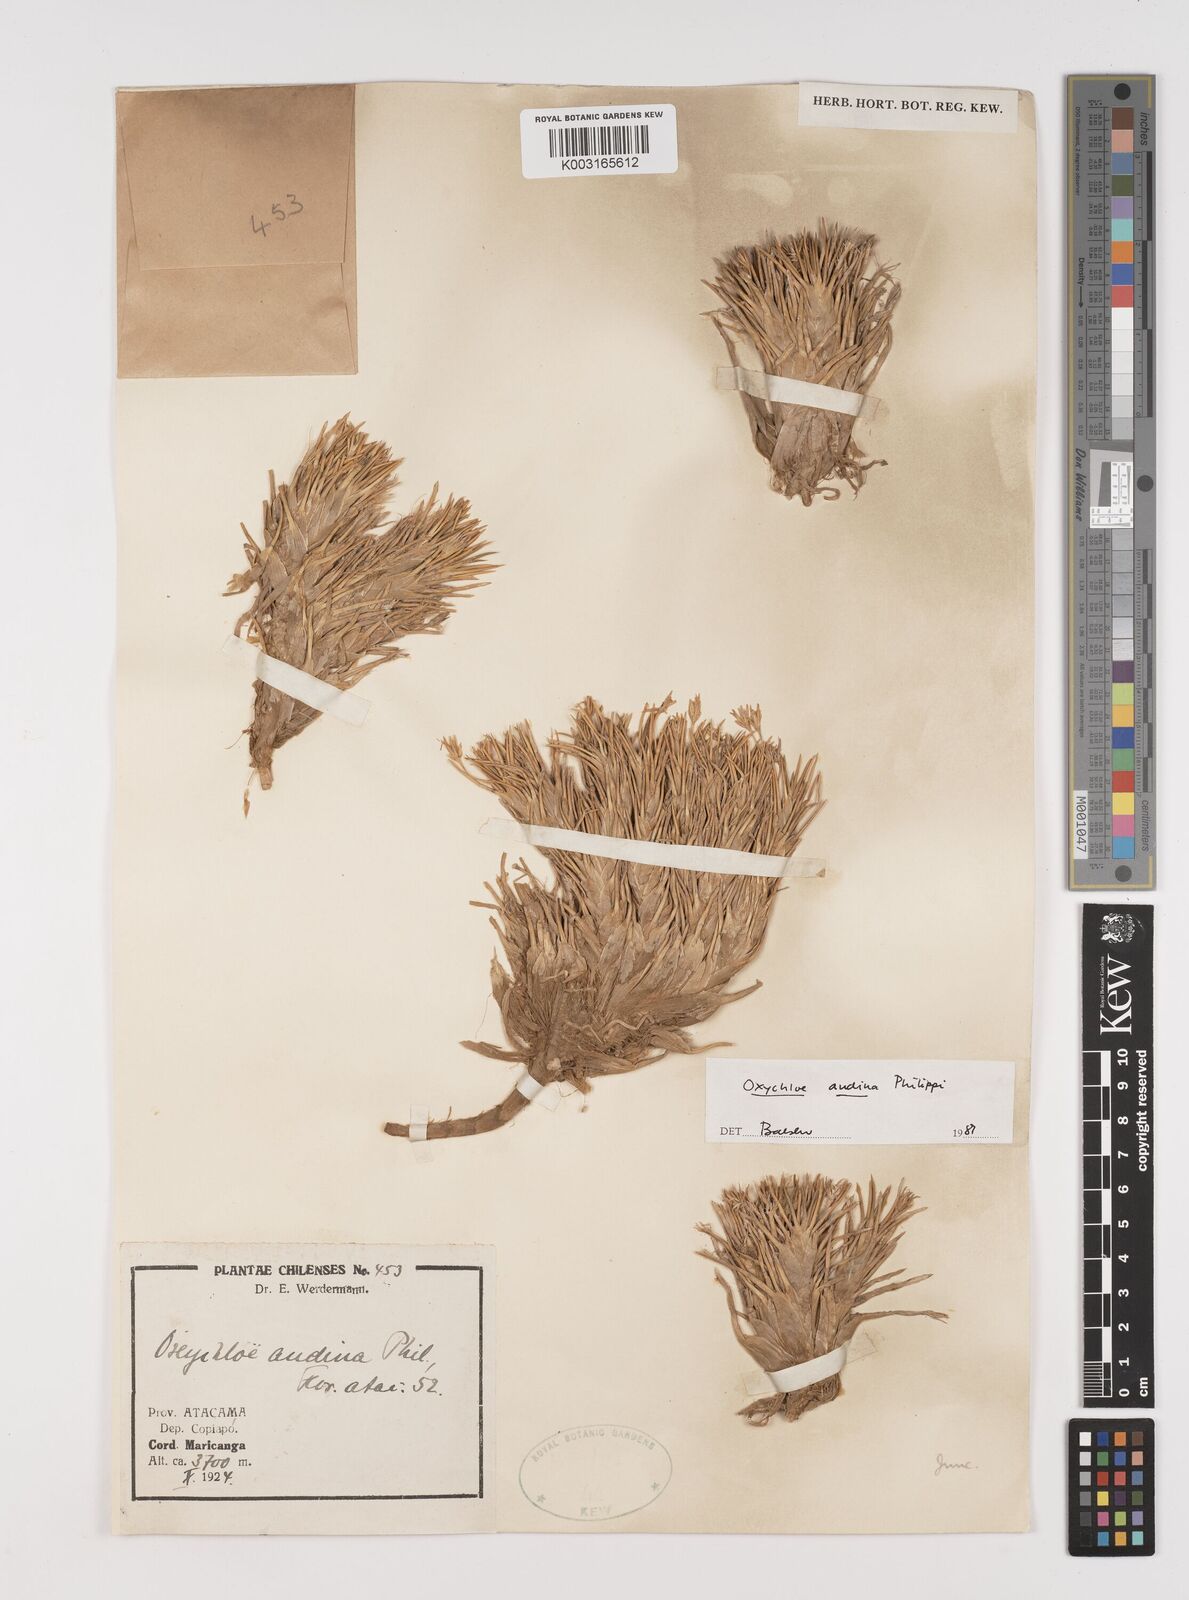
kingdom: Plantae
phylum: Tracheophyta
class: Liliopsida
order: Poales
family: Juncaceae
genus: Oxychloe
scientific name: Oxychloe andina
